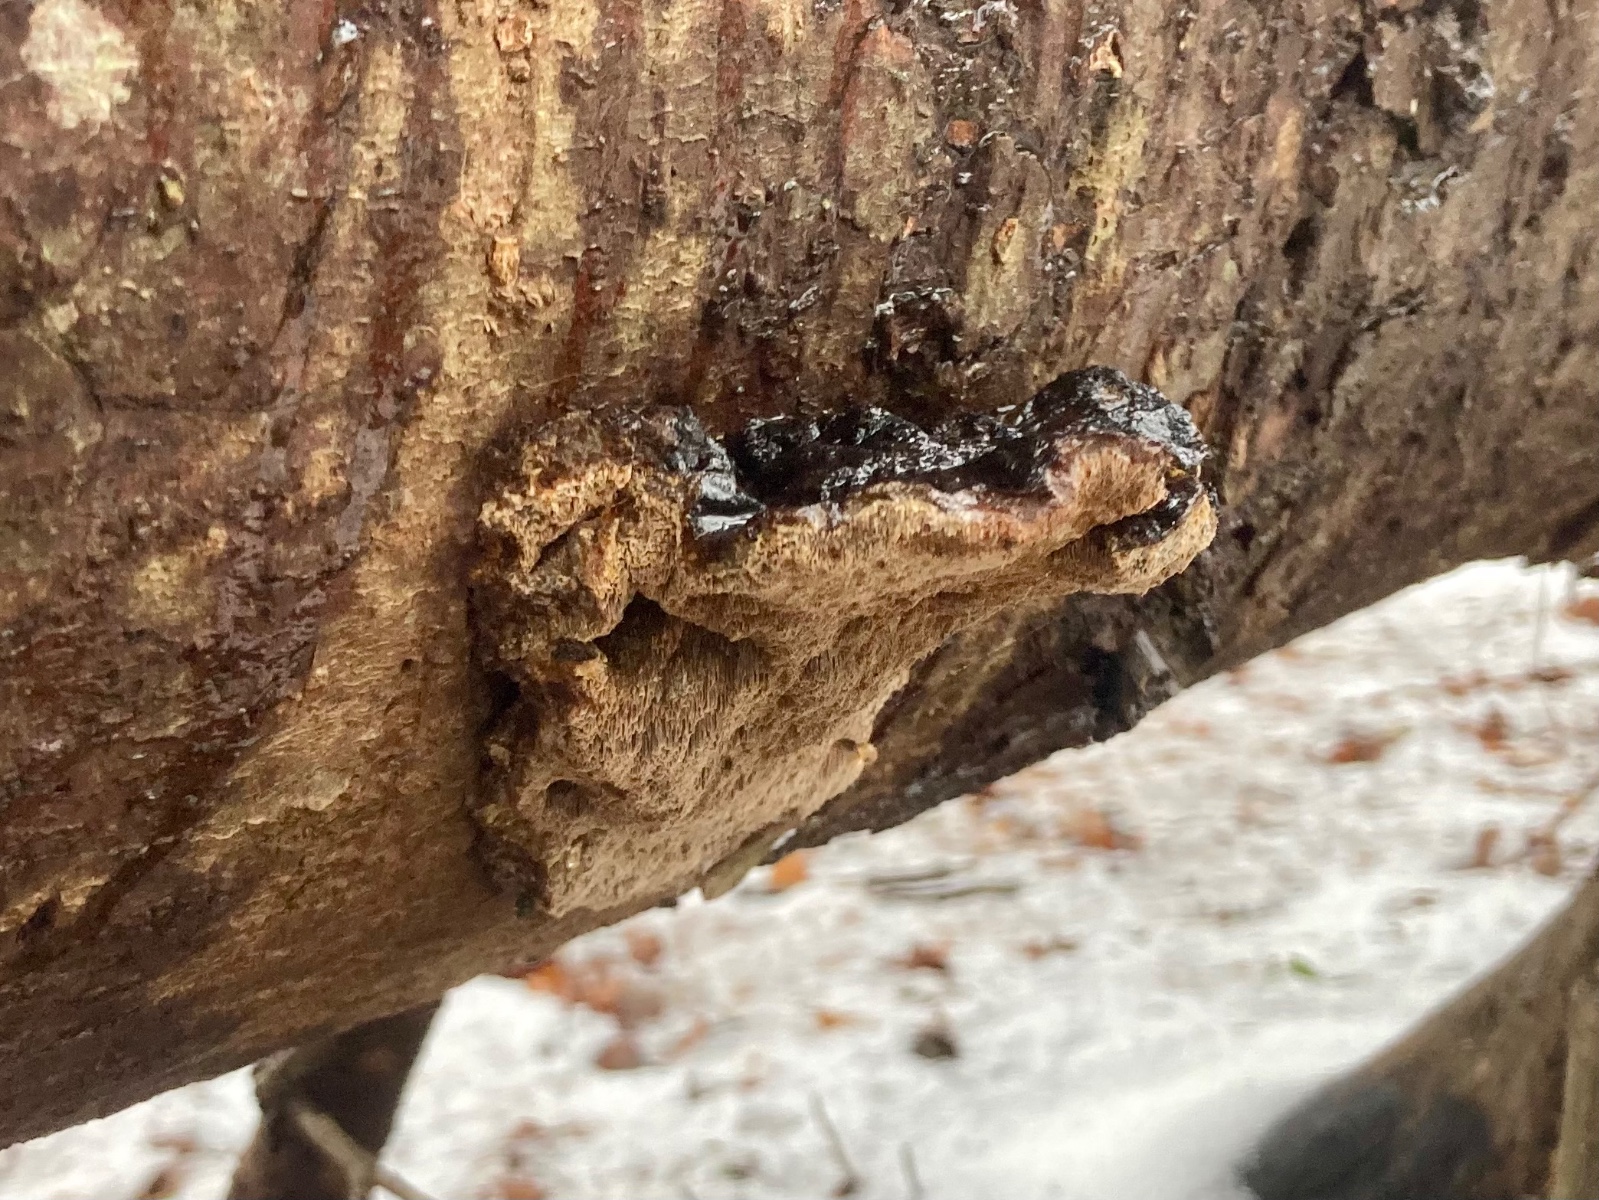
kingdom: Fungi
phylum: Basidiomycota
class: Agaricomycetes
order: Polyporales
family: Ischnodermataceae
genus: Ischnoderma
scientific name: Ischnoderma benzoinum
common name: gran-tjæreporesvamp
